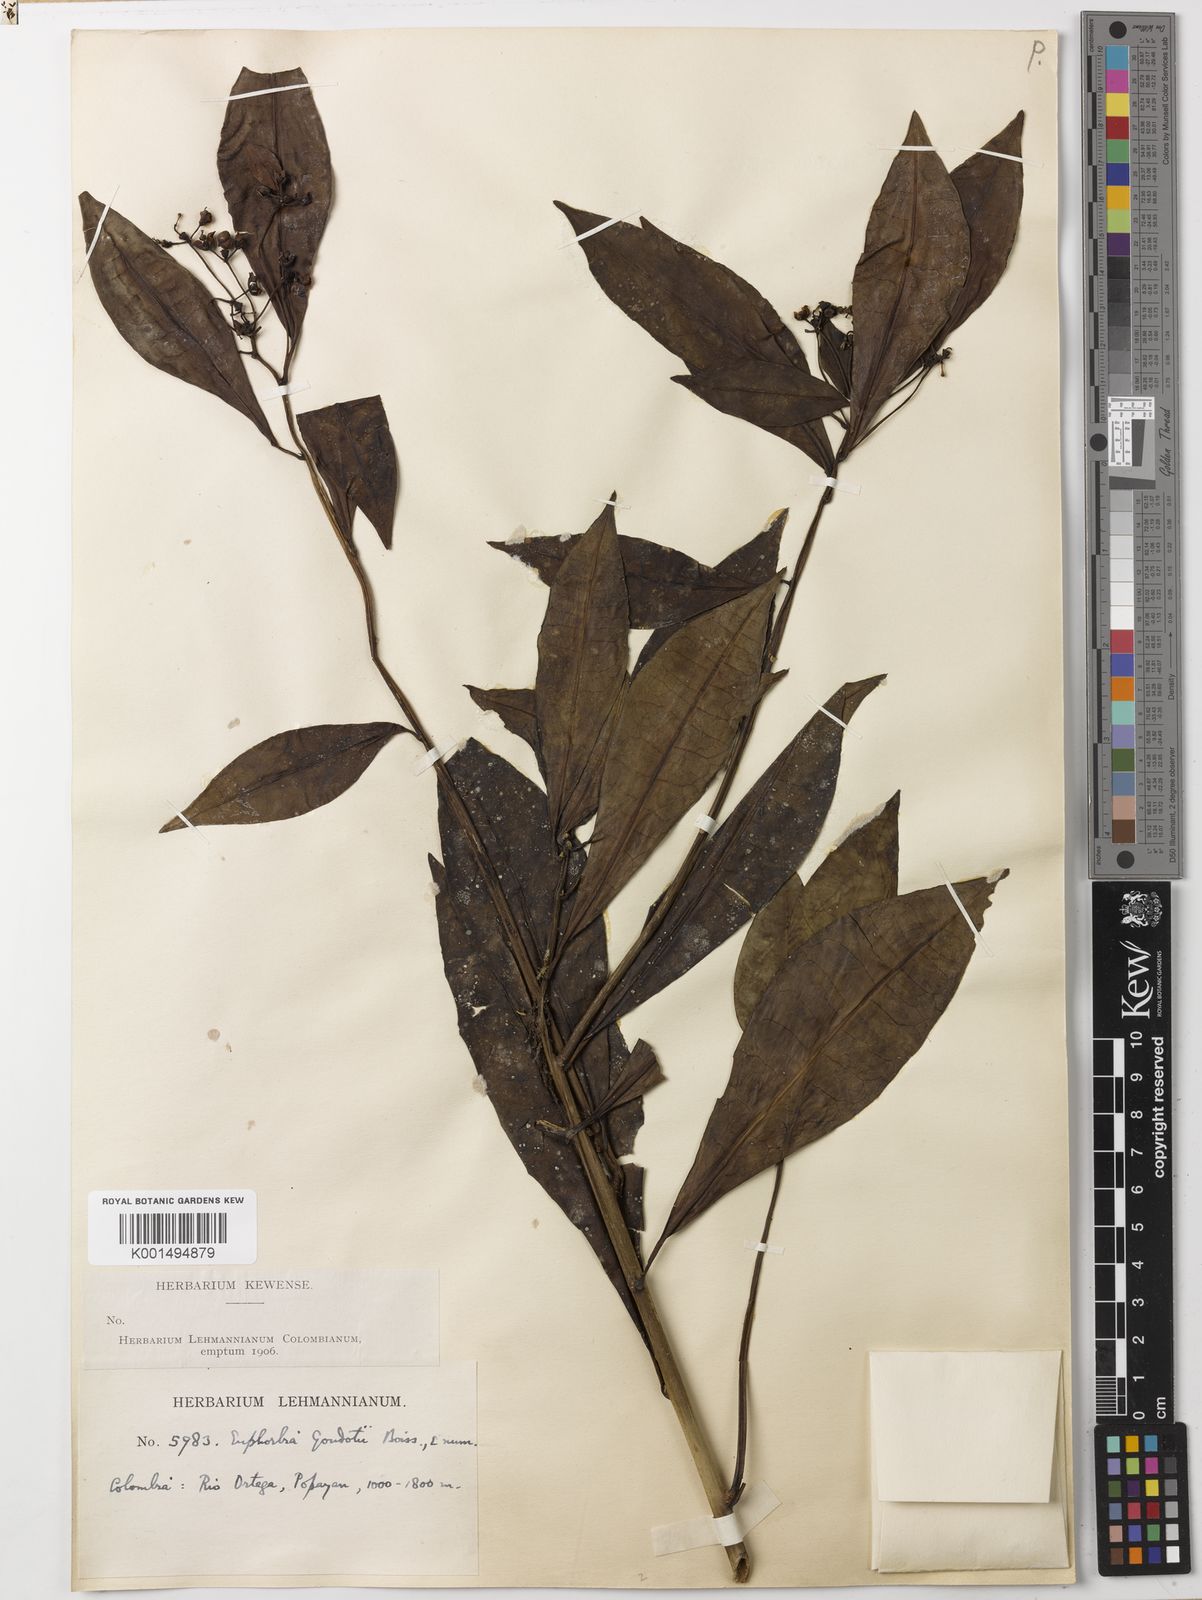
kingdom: Plantae
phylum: Tracheophyta
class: Magnoliopsida
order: Malpighiales
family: Euphorbiaceae
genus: Euphorbia
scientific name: Euphorbia laurifolia
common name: Lechero
